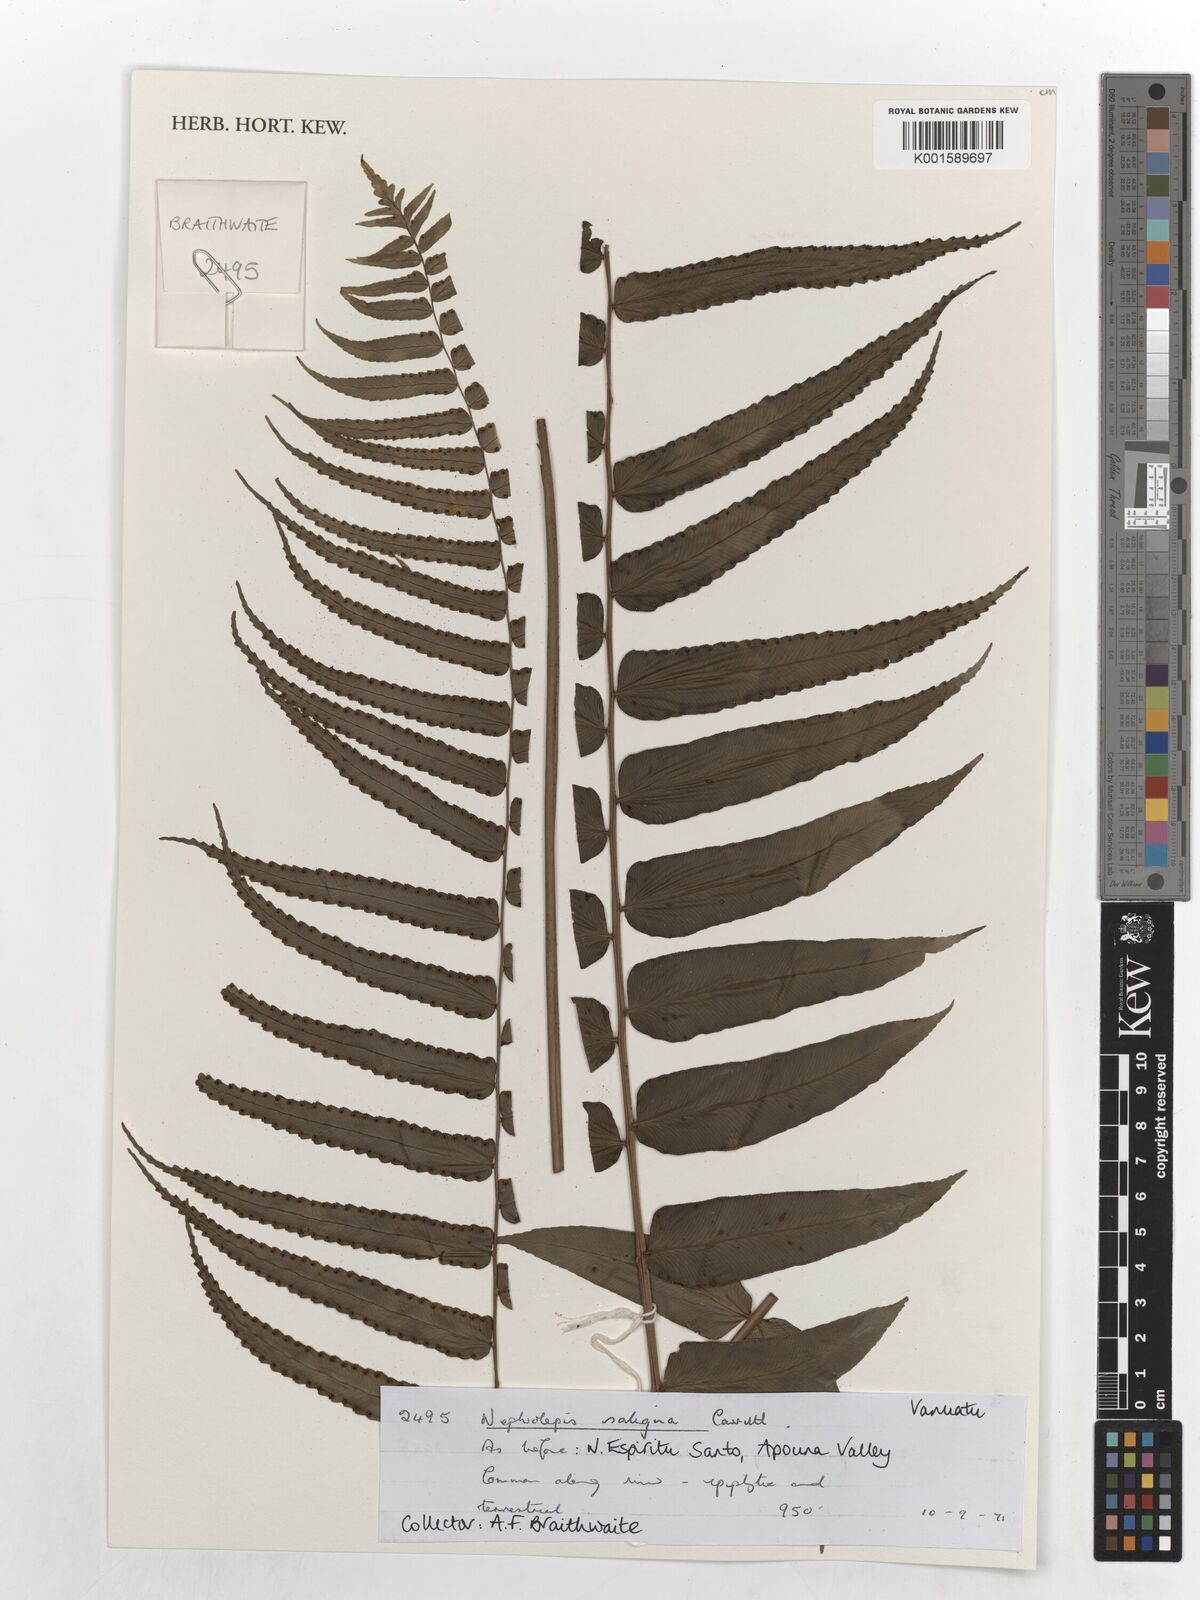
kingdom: Plantae
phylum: Tracheophyta
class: Polypodiopsida
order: Polypodiales
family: Nephrolepidaceae
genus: Nephrolepis
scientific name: Nephrolepis obliterata
